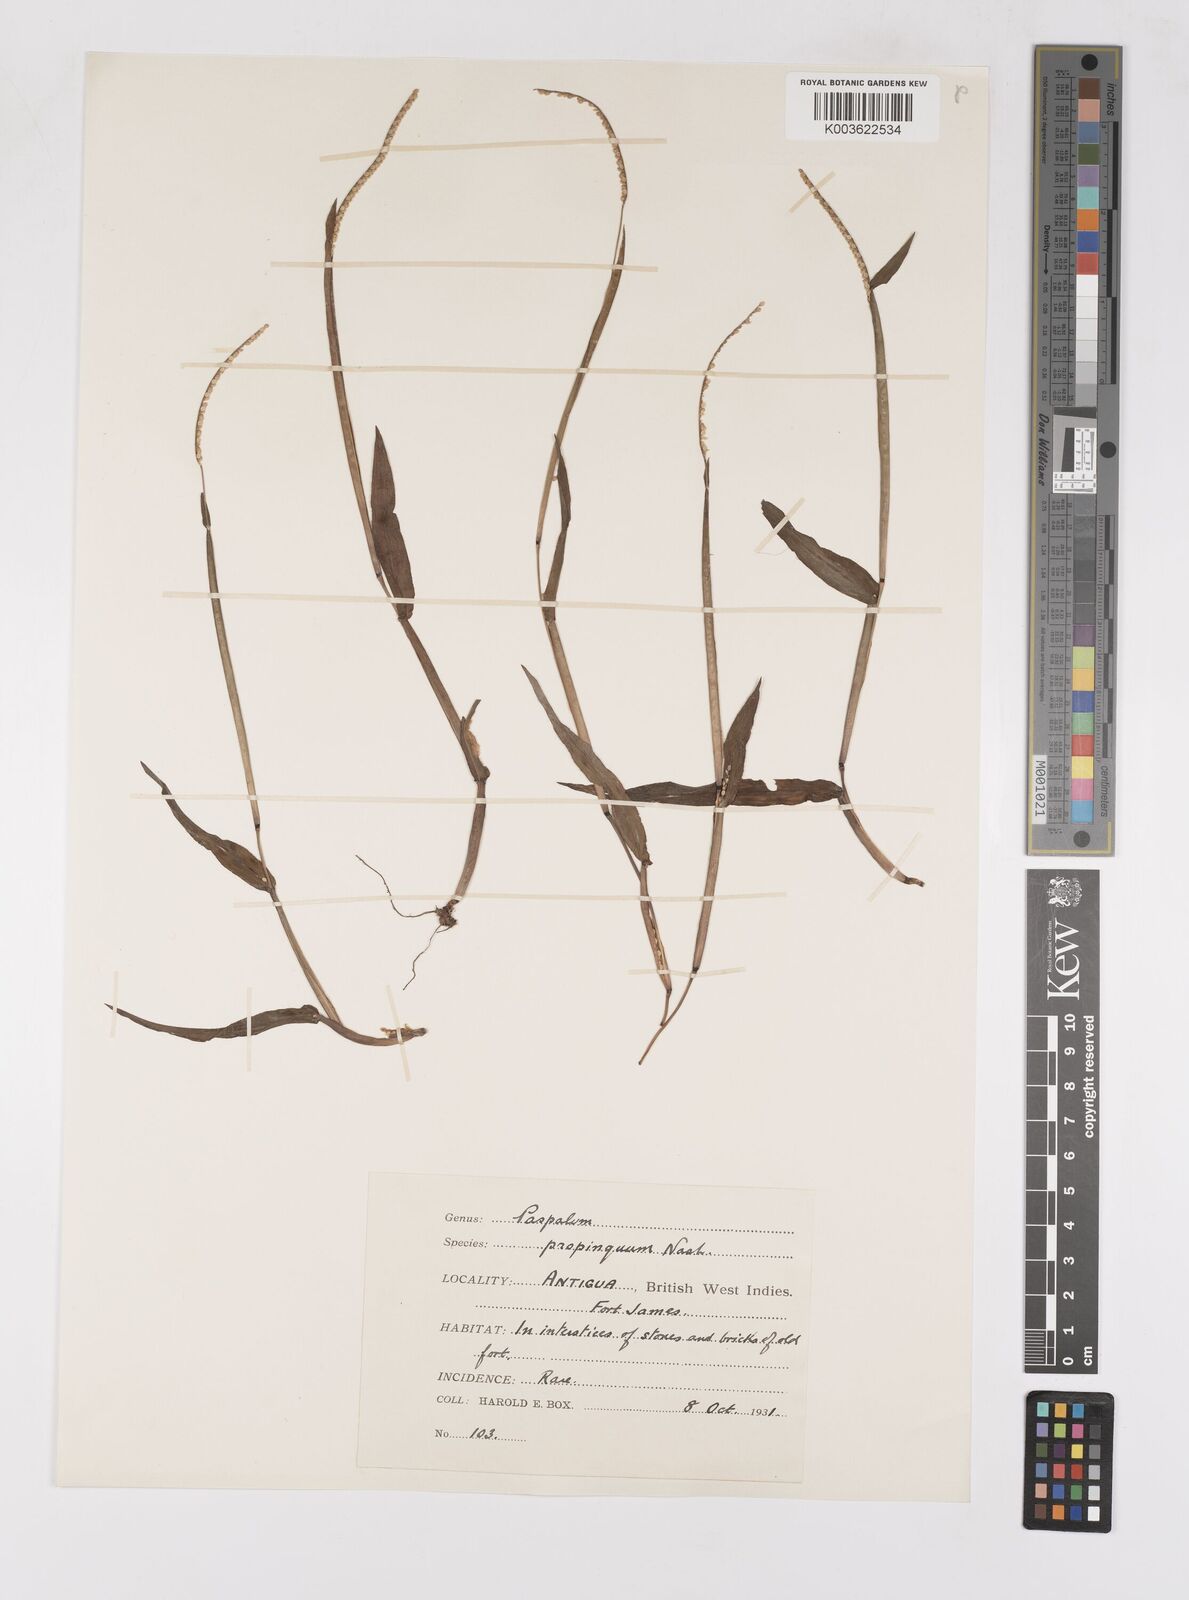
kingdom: Plantae
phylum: Tracheophyta
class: Liliopsida
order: Poales
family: Poaceae
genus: Paspalum
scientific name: Paspalum
